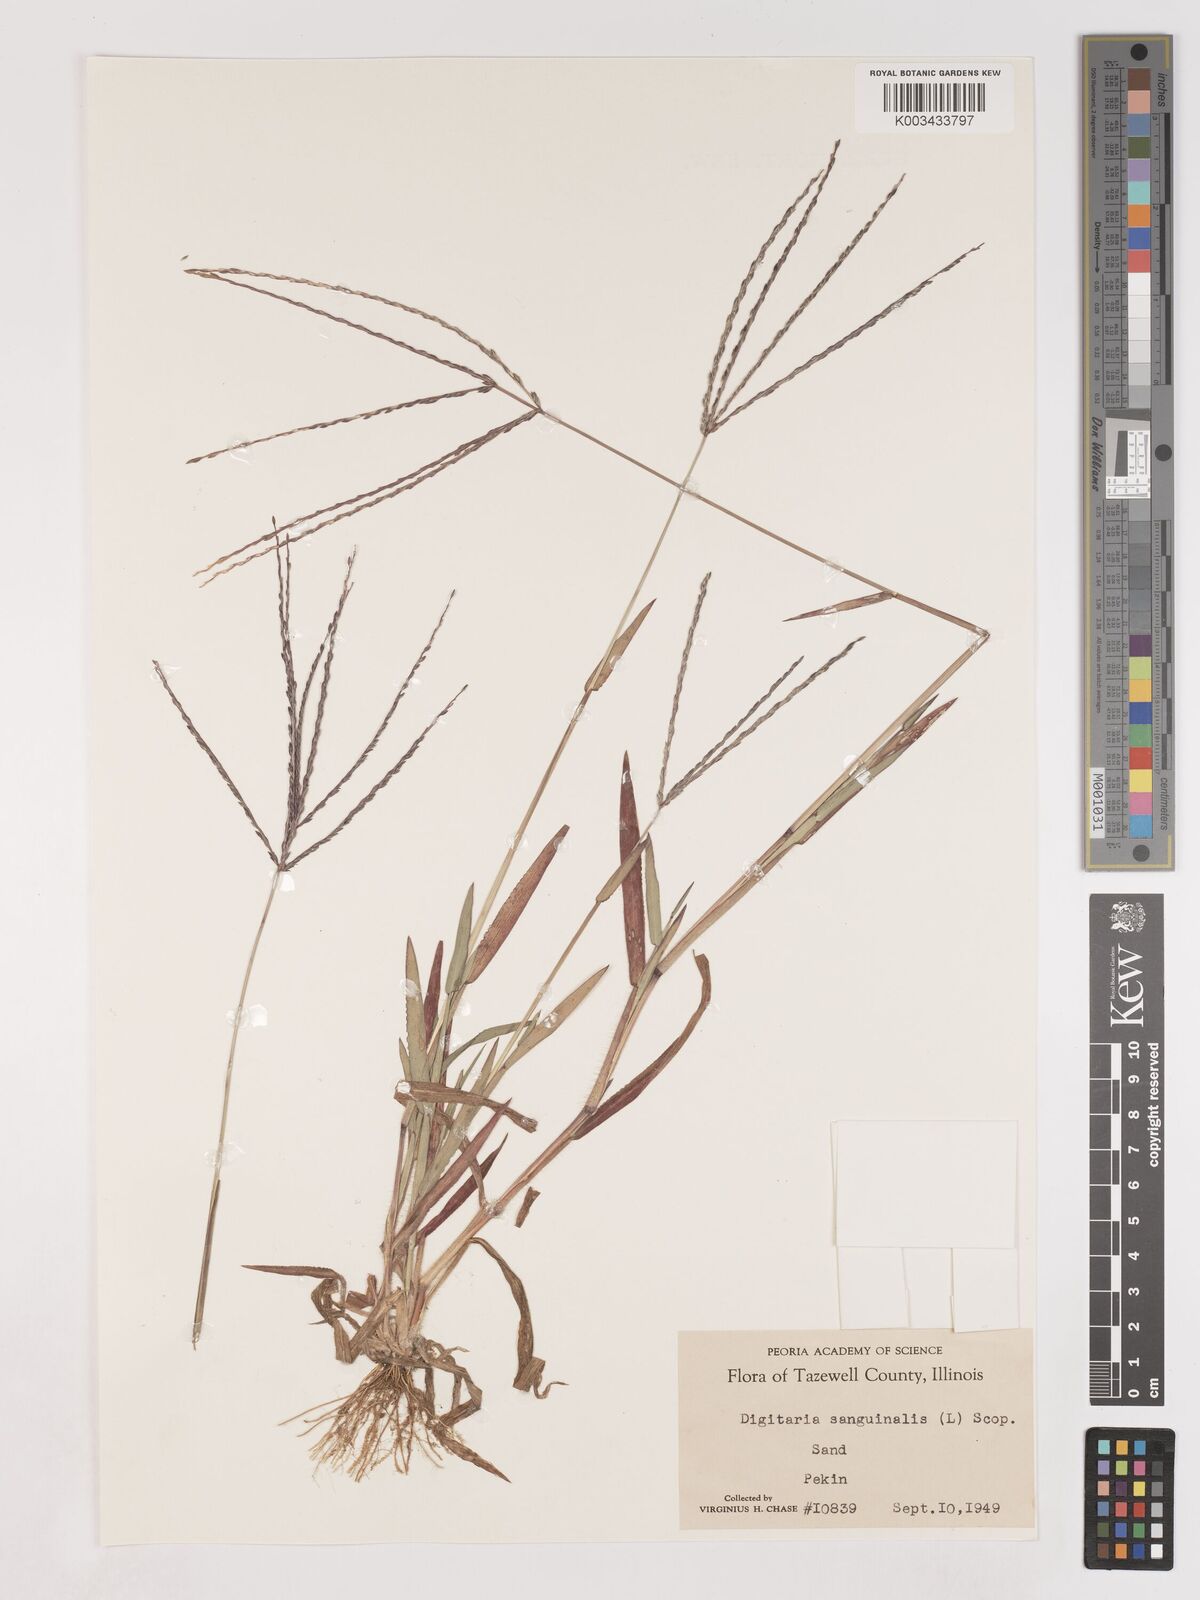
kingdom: Plantae
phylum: Tracheophyta
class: Liliopsida
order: Poales
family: Poaceae
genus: Digitaria
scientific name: Digitaria sanguinalis
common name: Hairy crabgrass
